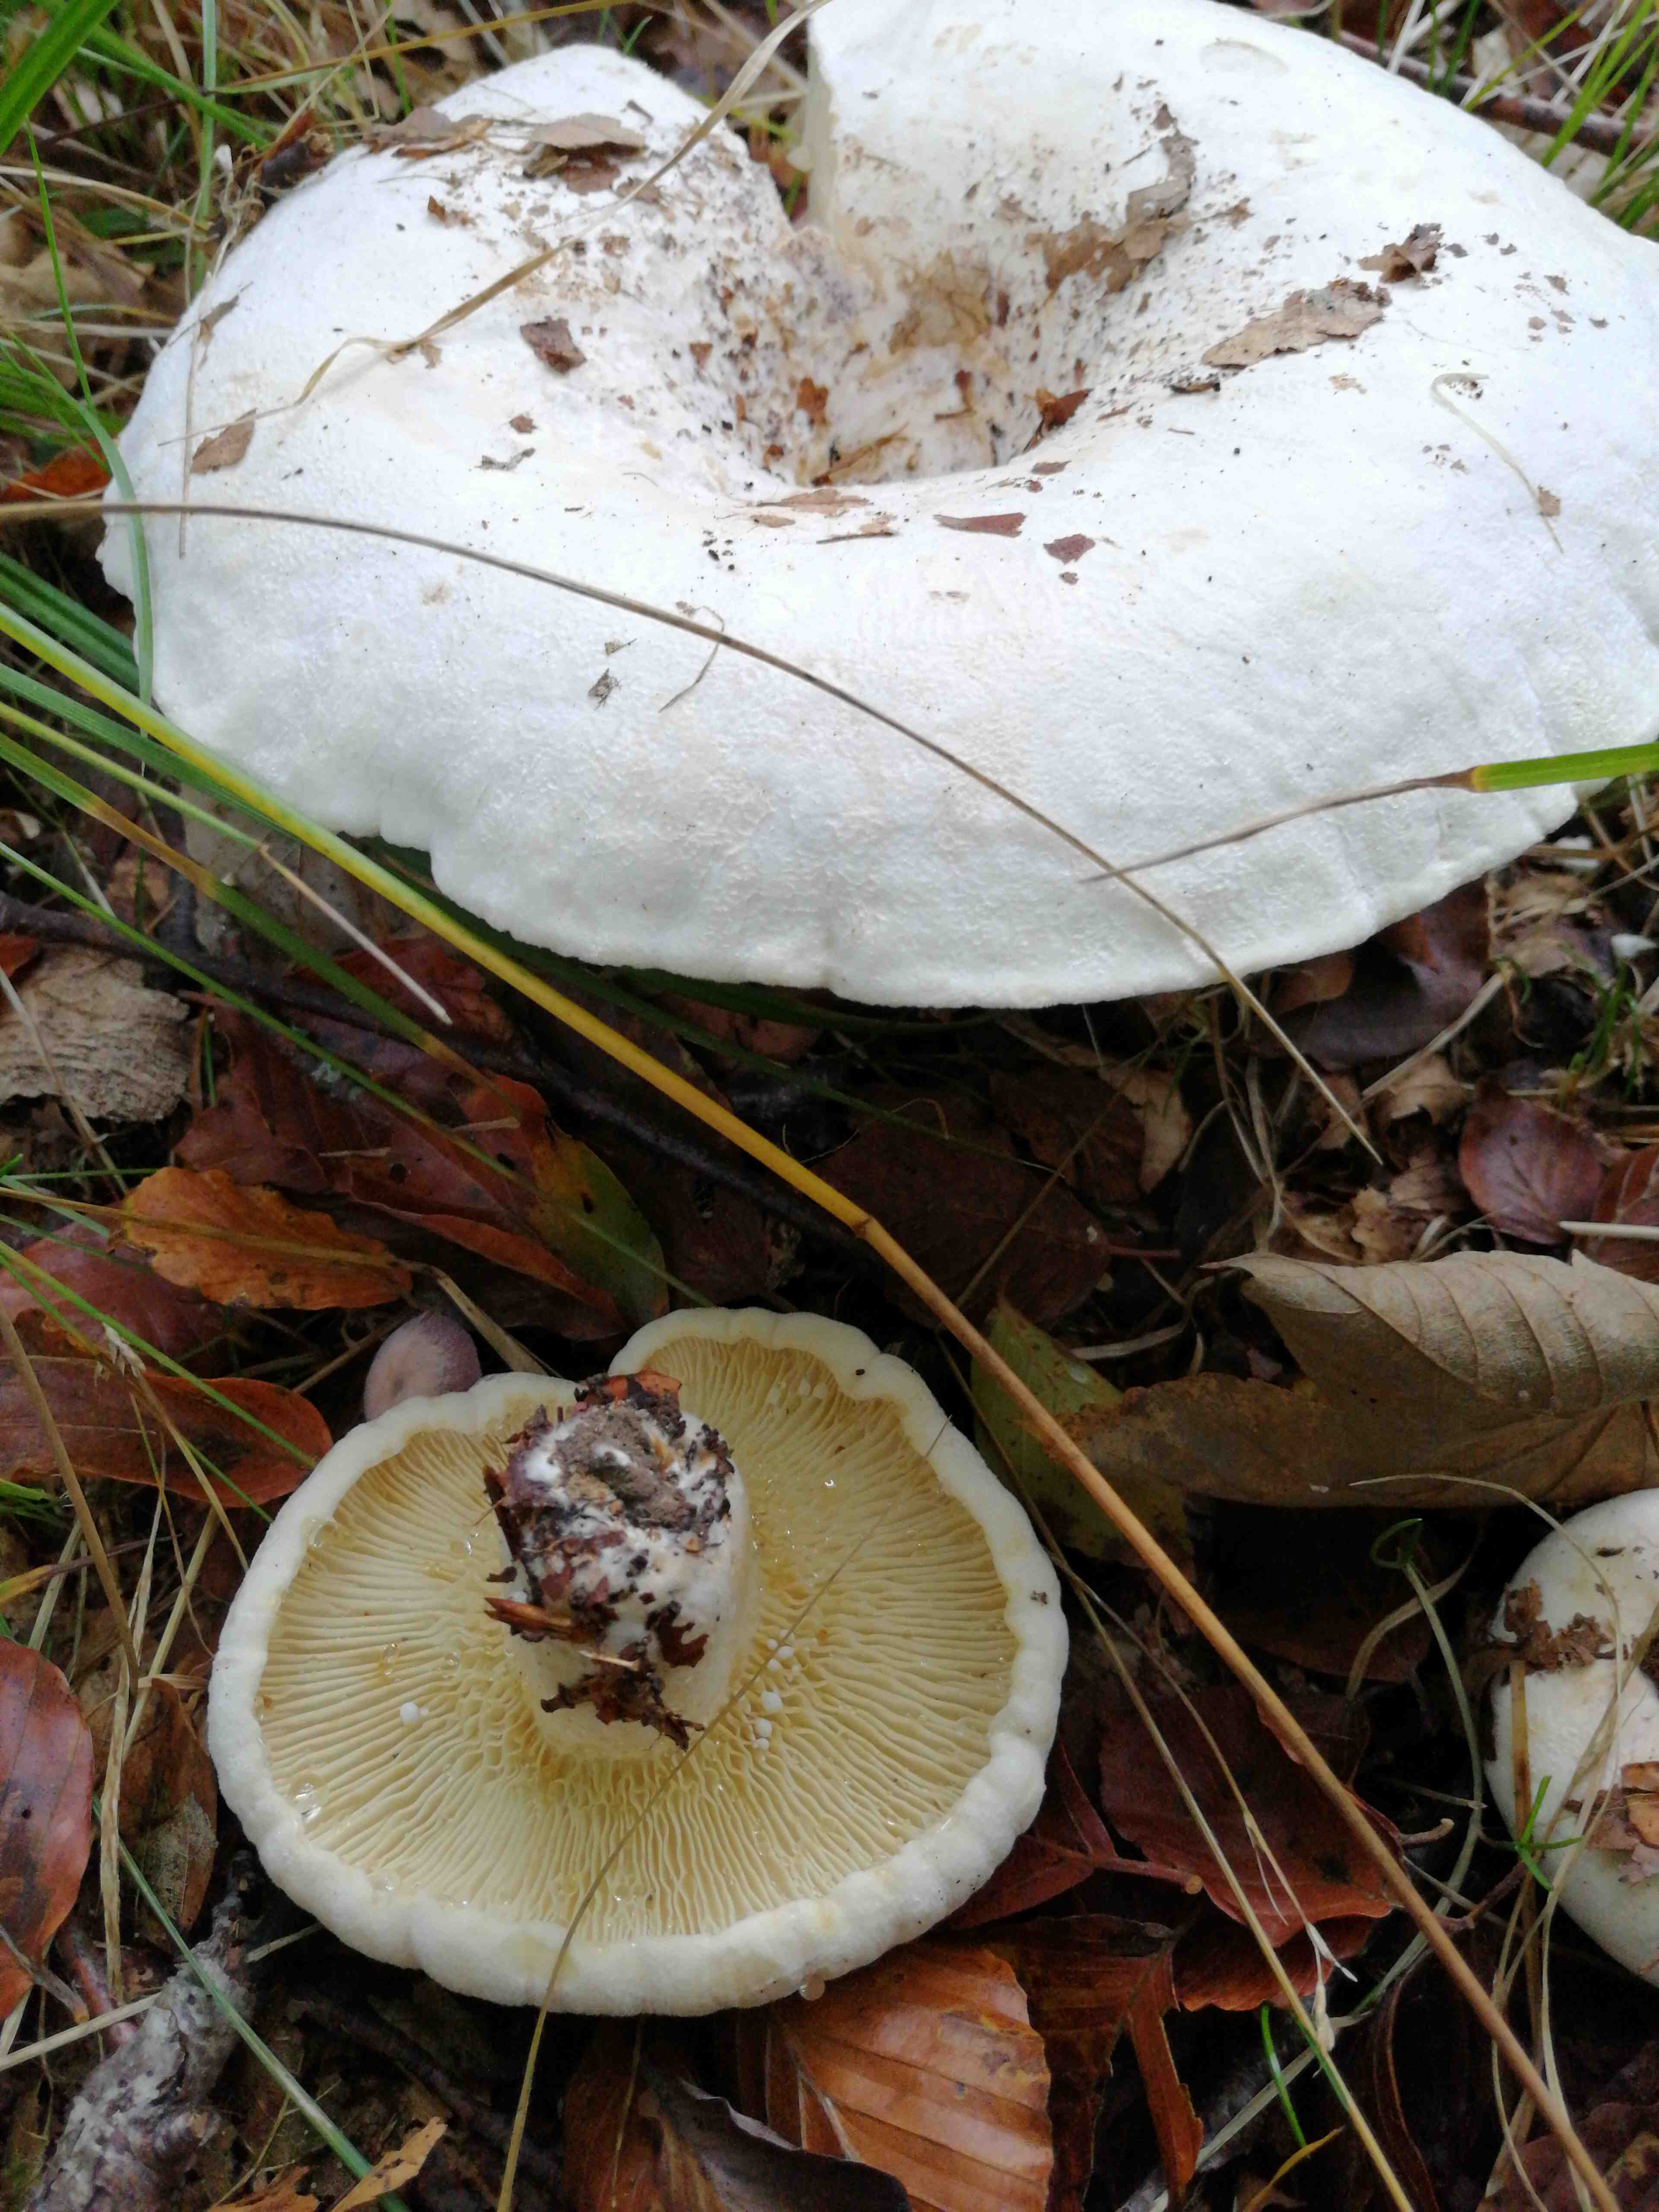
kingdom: Fungi
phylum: Basidiomycota
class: Agaricomycetes
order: Russulales
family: Russulaceae
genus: Lactifluus
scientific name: Lactifluus vellereus
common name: hvidfiltet mælkehat
